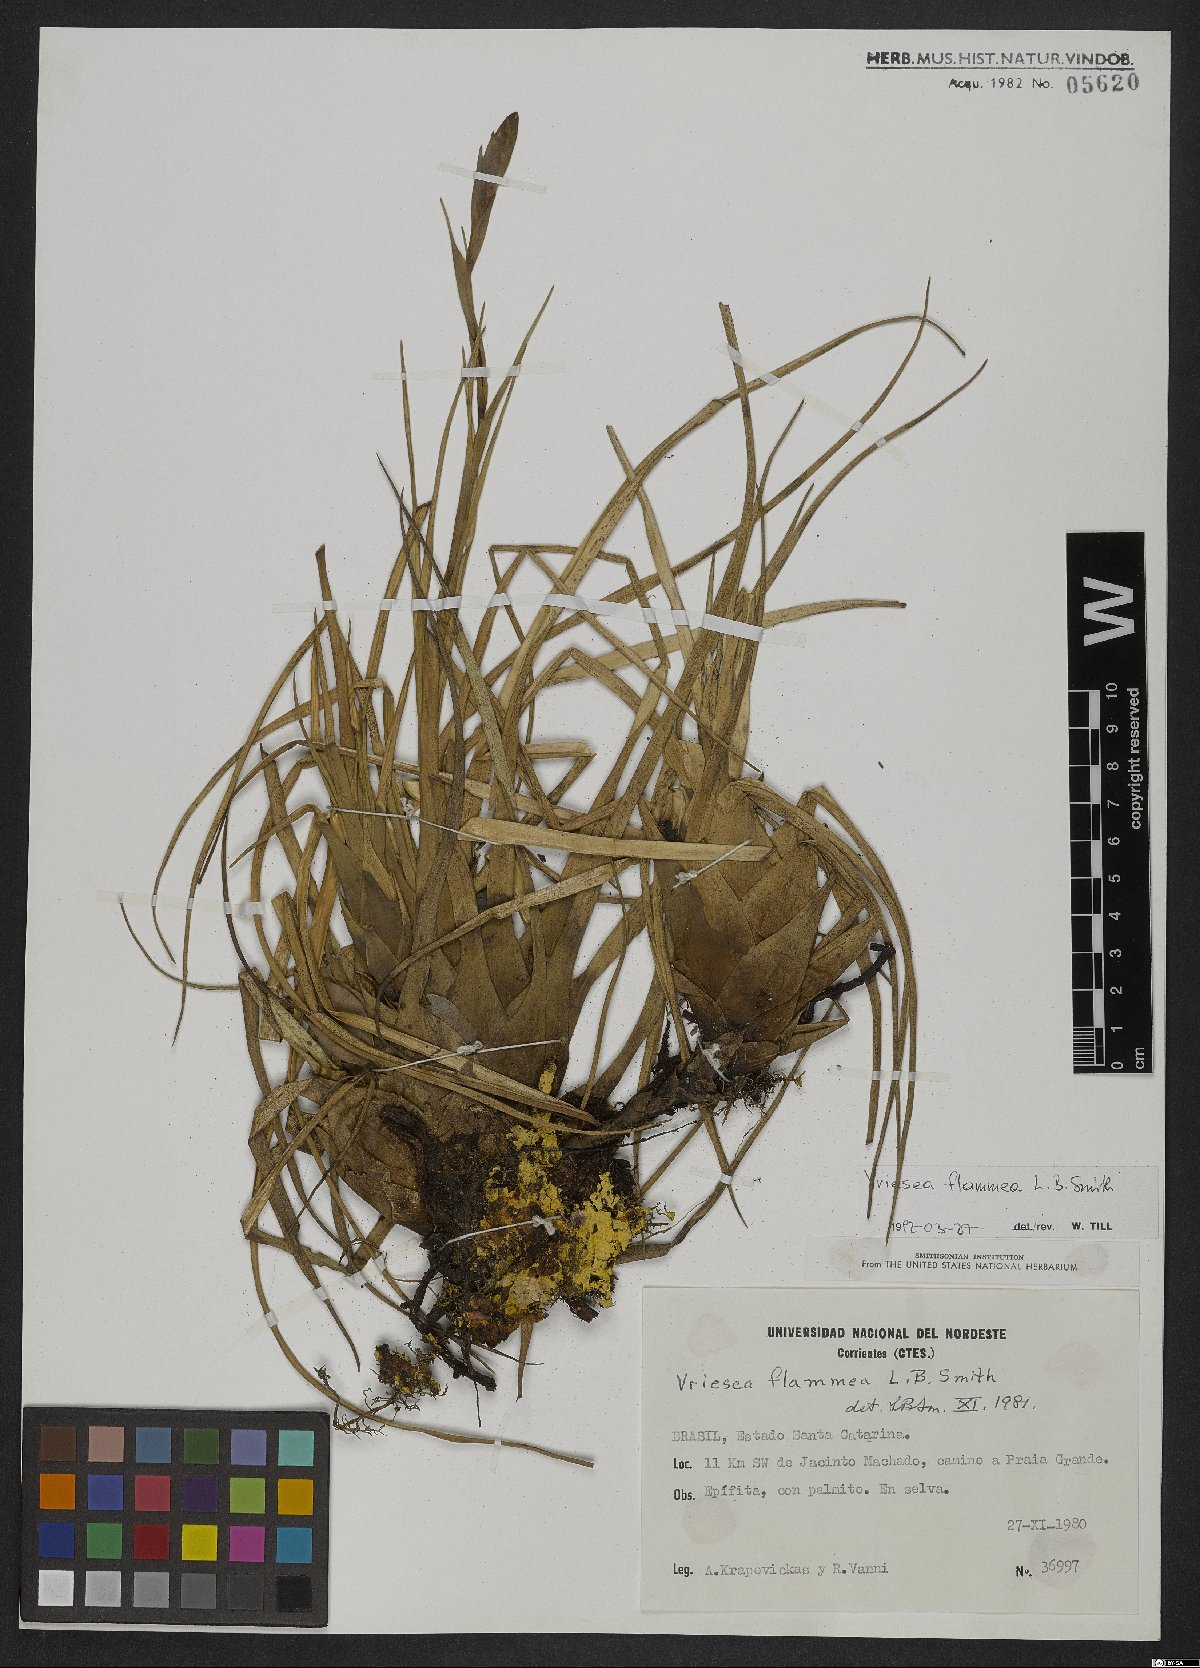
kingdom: Plantae
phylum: Tracheophyta
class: Liliopsida
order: Poales
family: Bromeliaceae
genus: Vriesea
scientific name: Vriesea flammea
